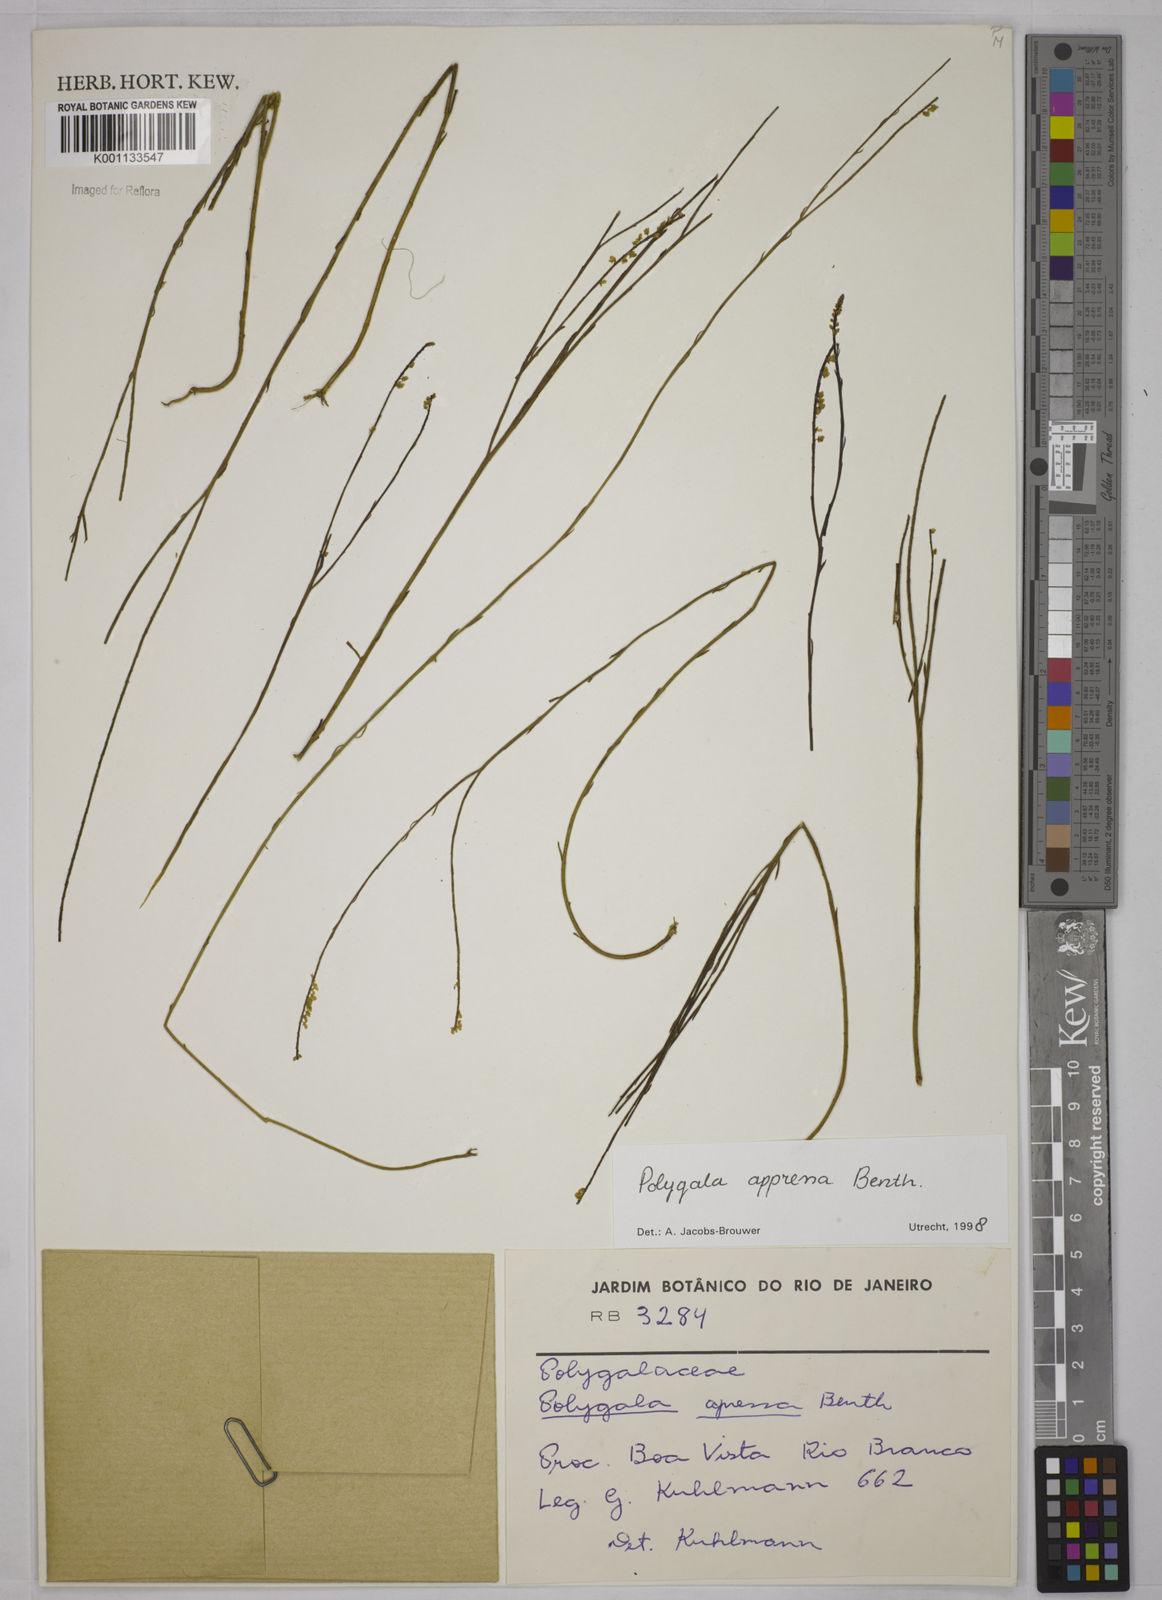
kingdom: Plantae
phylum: Tracheophyta
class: Magnoliopsida
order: Fabales
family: Polygalaceae
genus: Polygala
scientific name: Polygala appressa
